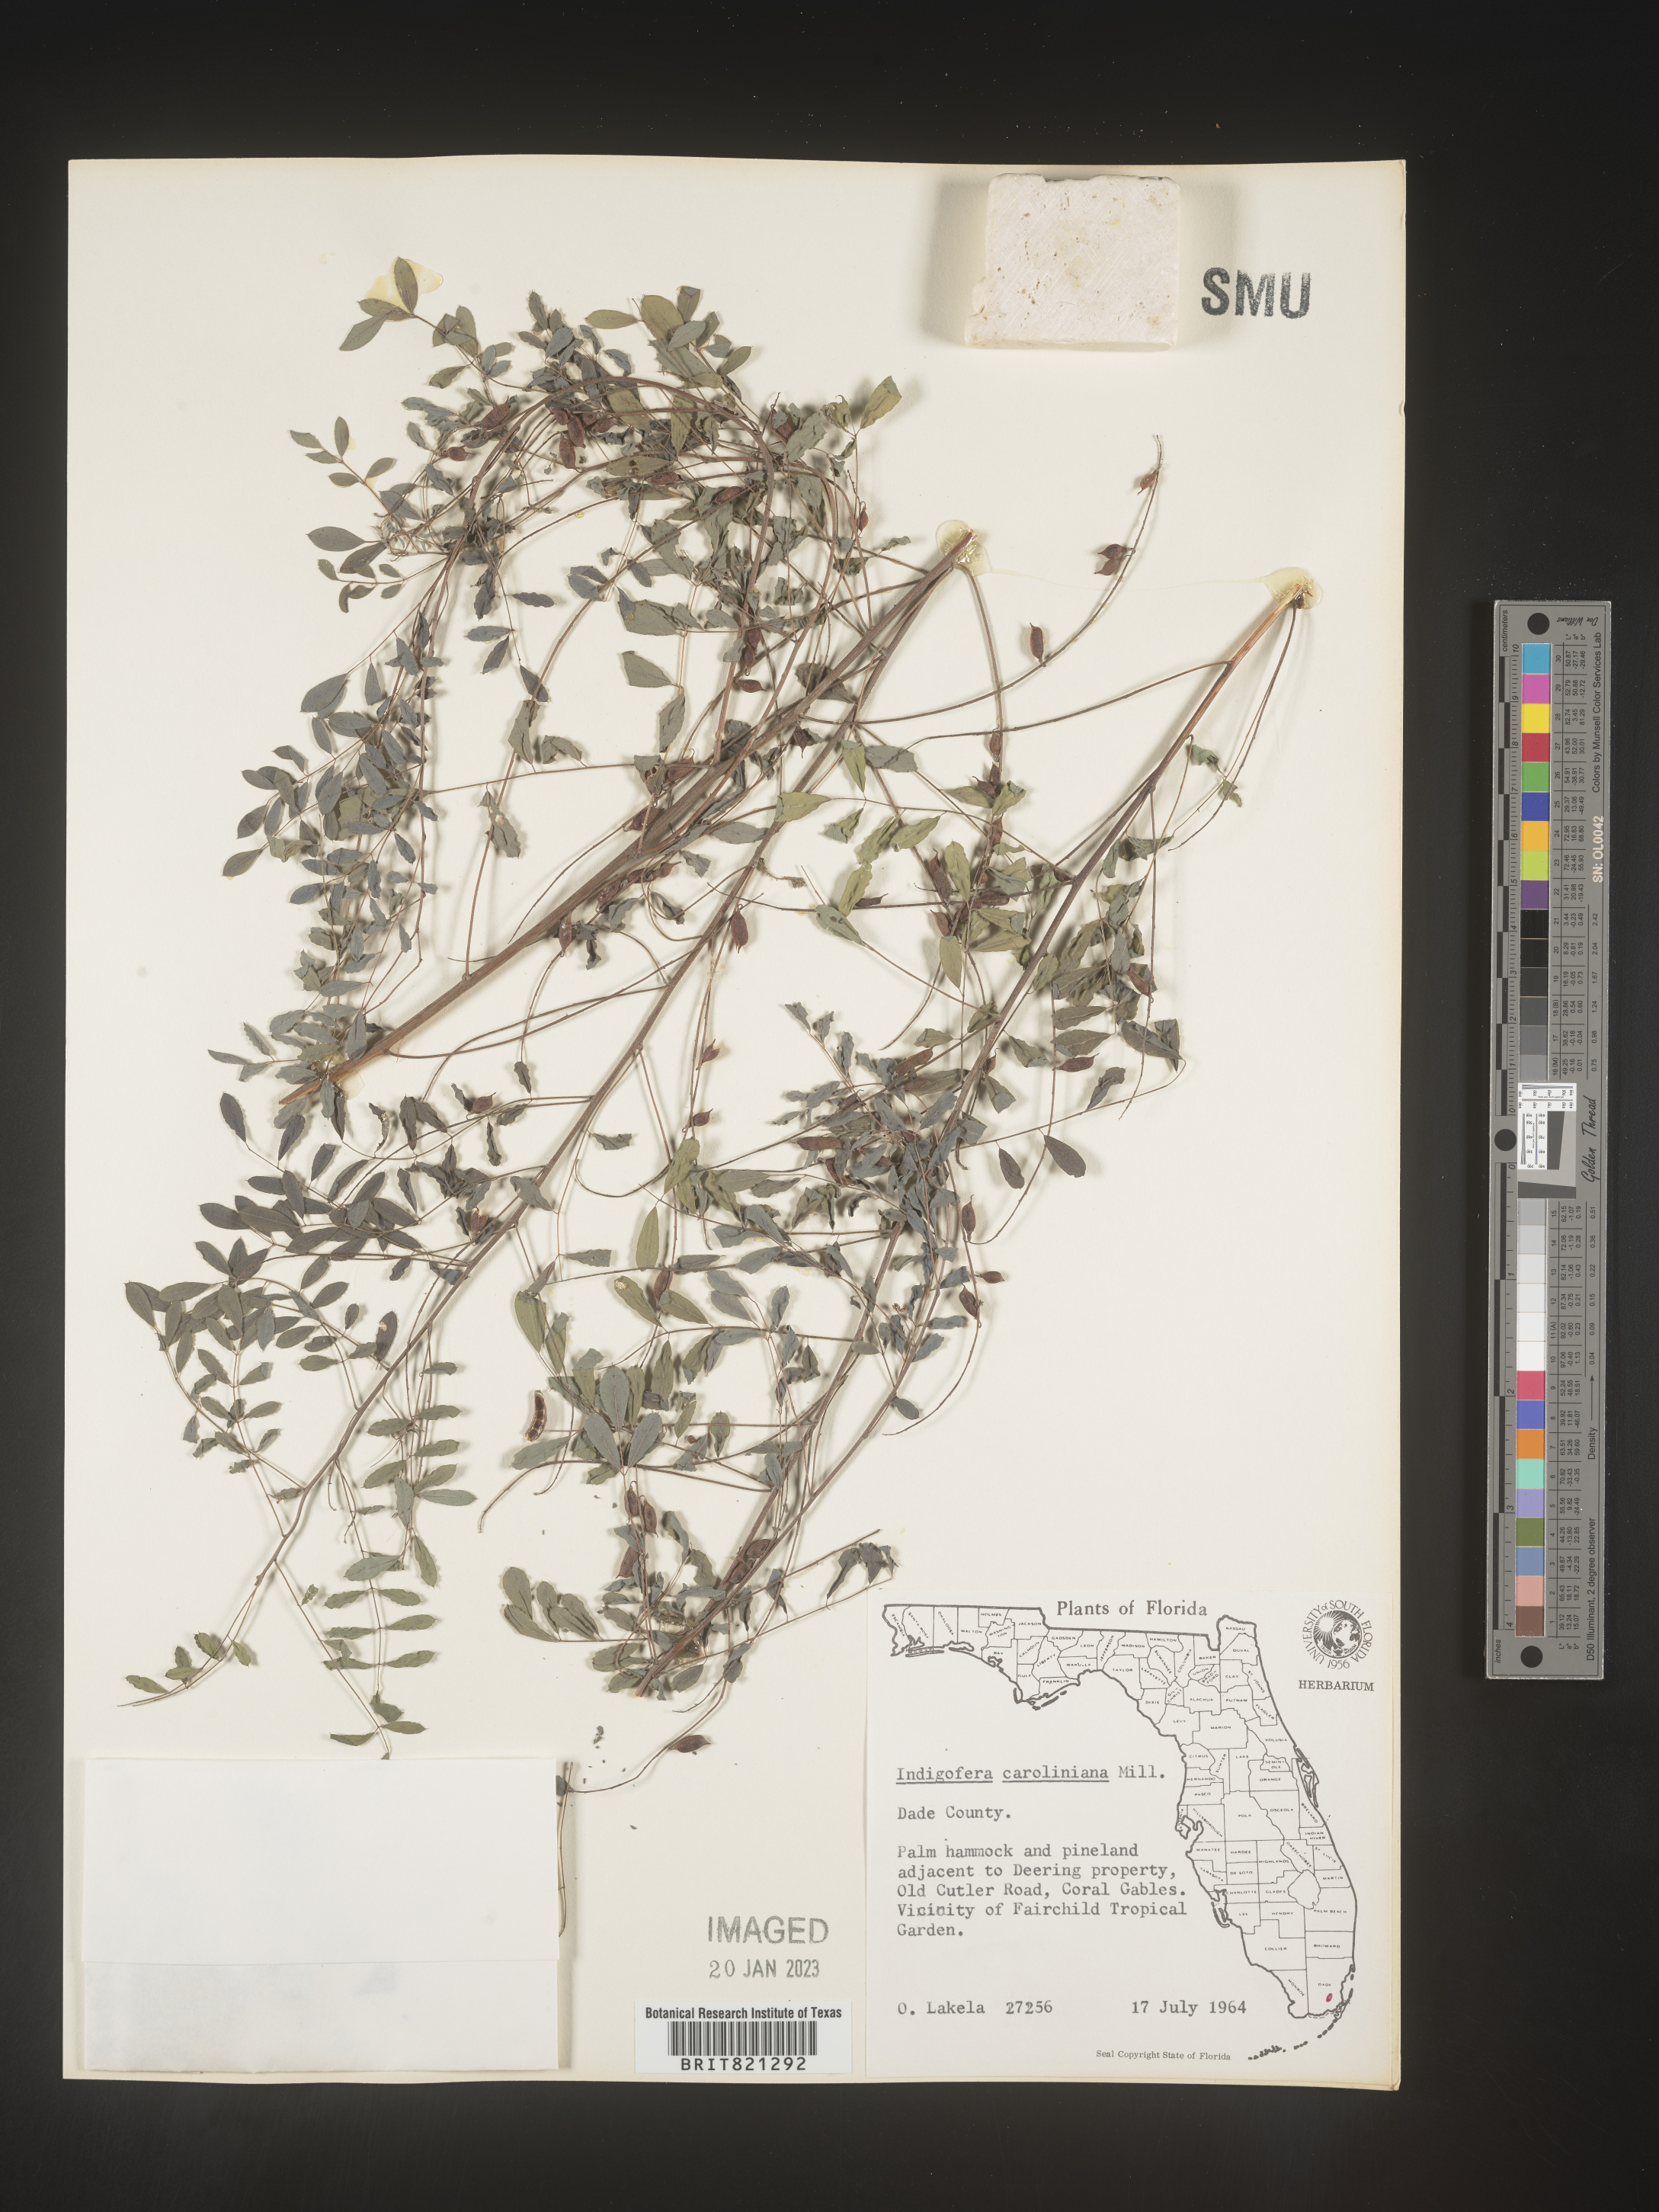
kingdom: Plantae
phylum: Tracheophyta
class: Magnoliopsida
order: Fabales
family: Fabaceae
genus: Indigofera
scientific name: Indigofera
